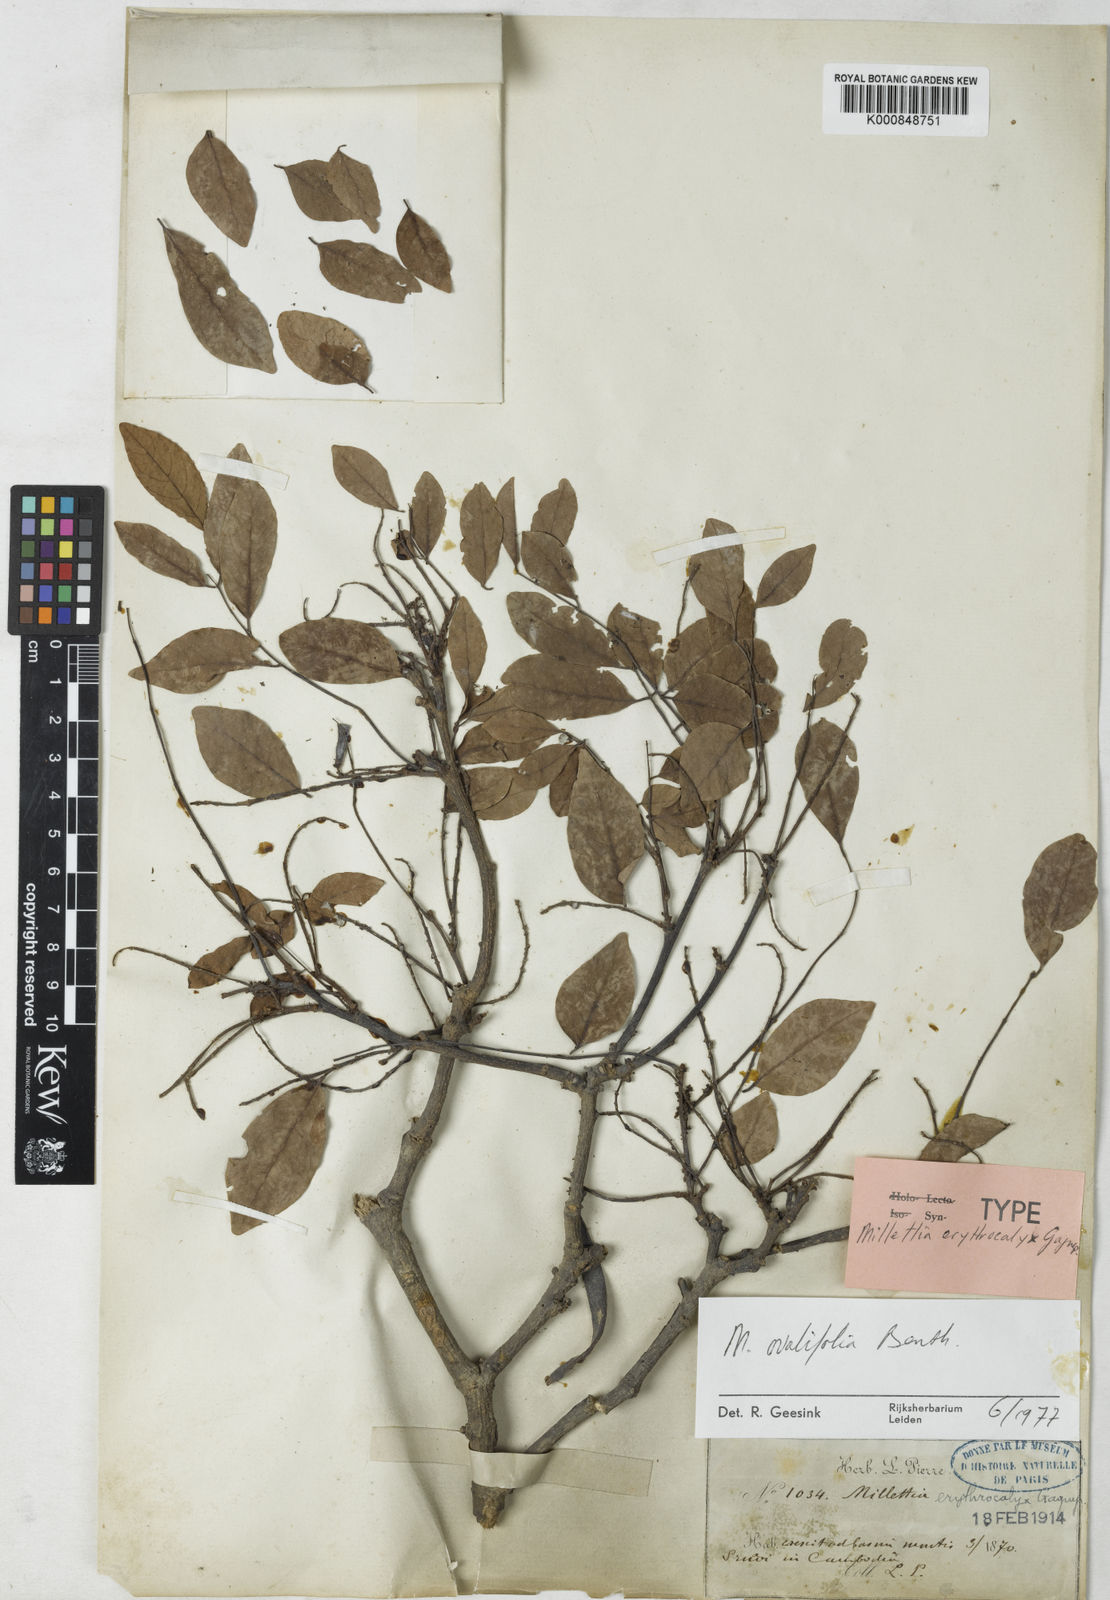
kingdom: Plantae
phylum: Tracheophyta
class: Magnoliopsida
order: Fabales
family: Fabaceae
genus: Millettia
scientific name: Millettia
